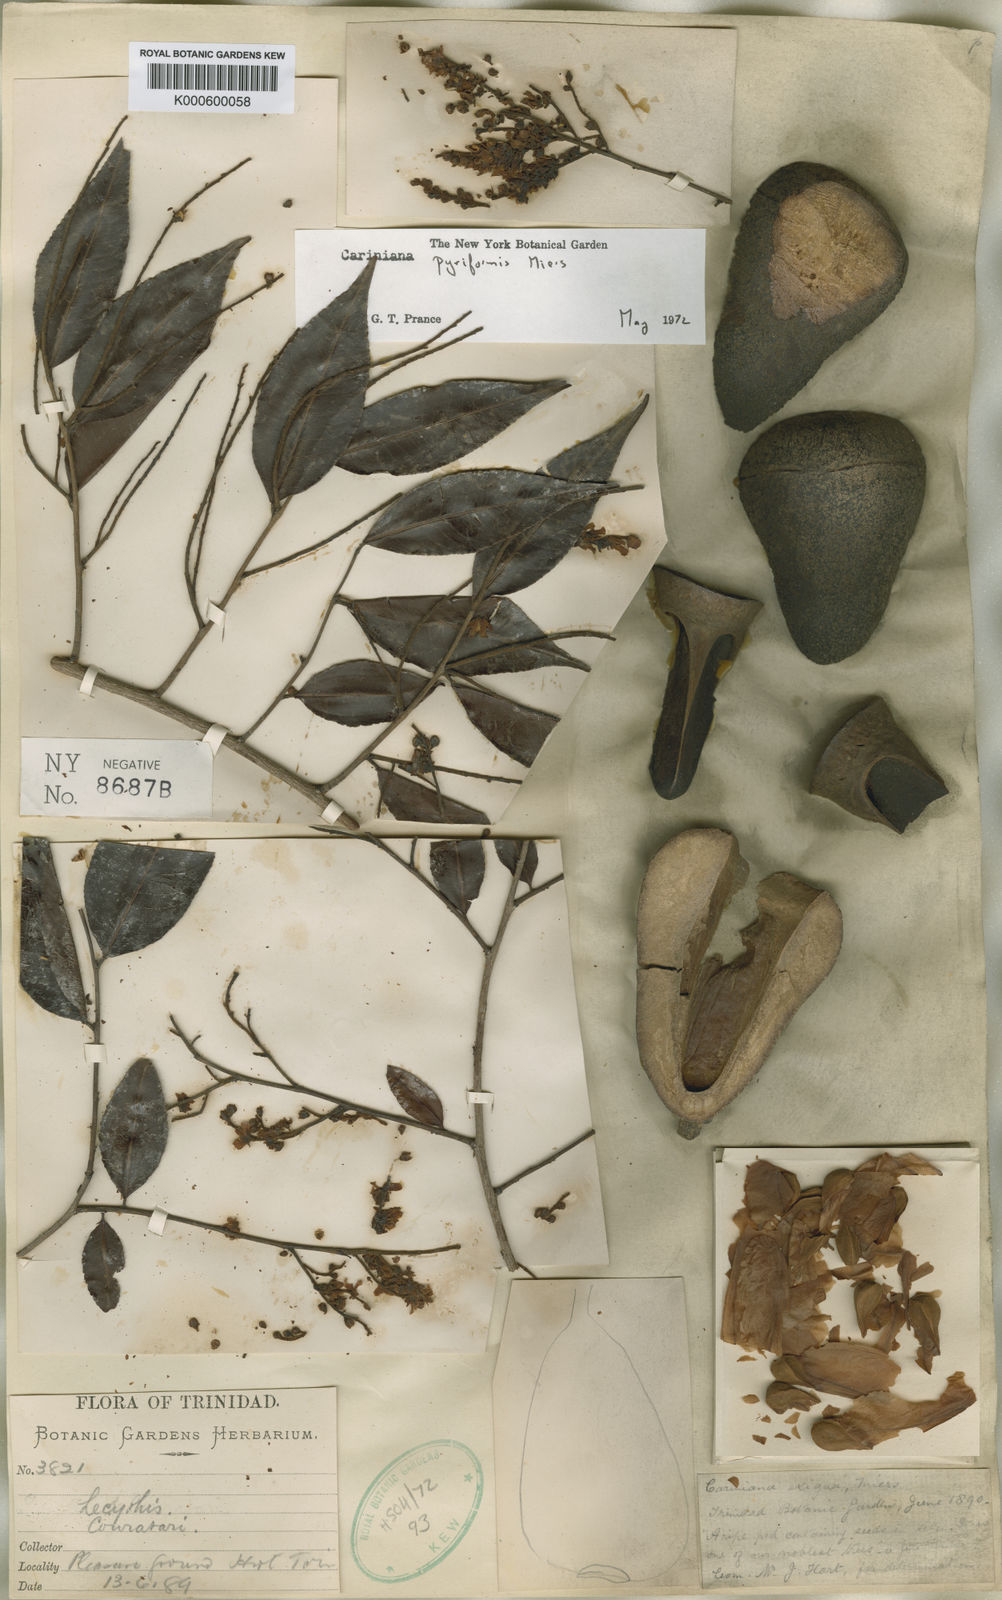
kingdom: Plantae
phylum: Tracheophyta
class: Magnoliopsida
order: Ericales
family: Lecythidaceae
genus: Cariniana
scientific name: Cariniana pyriformis
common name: Colombian mahogany
